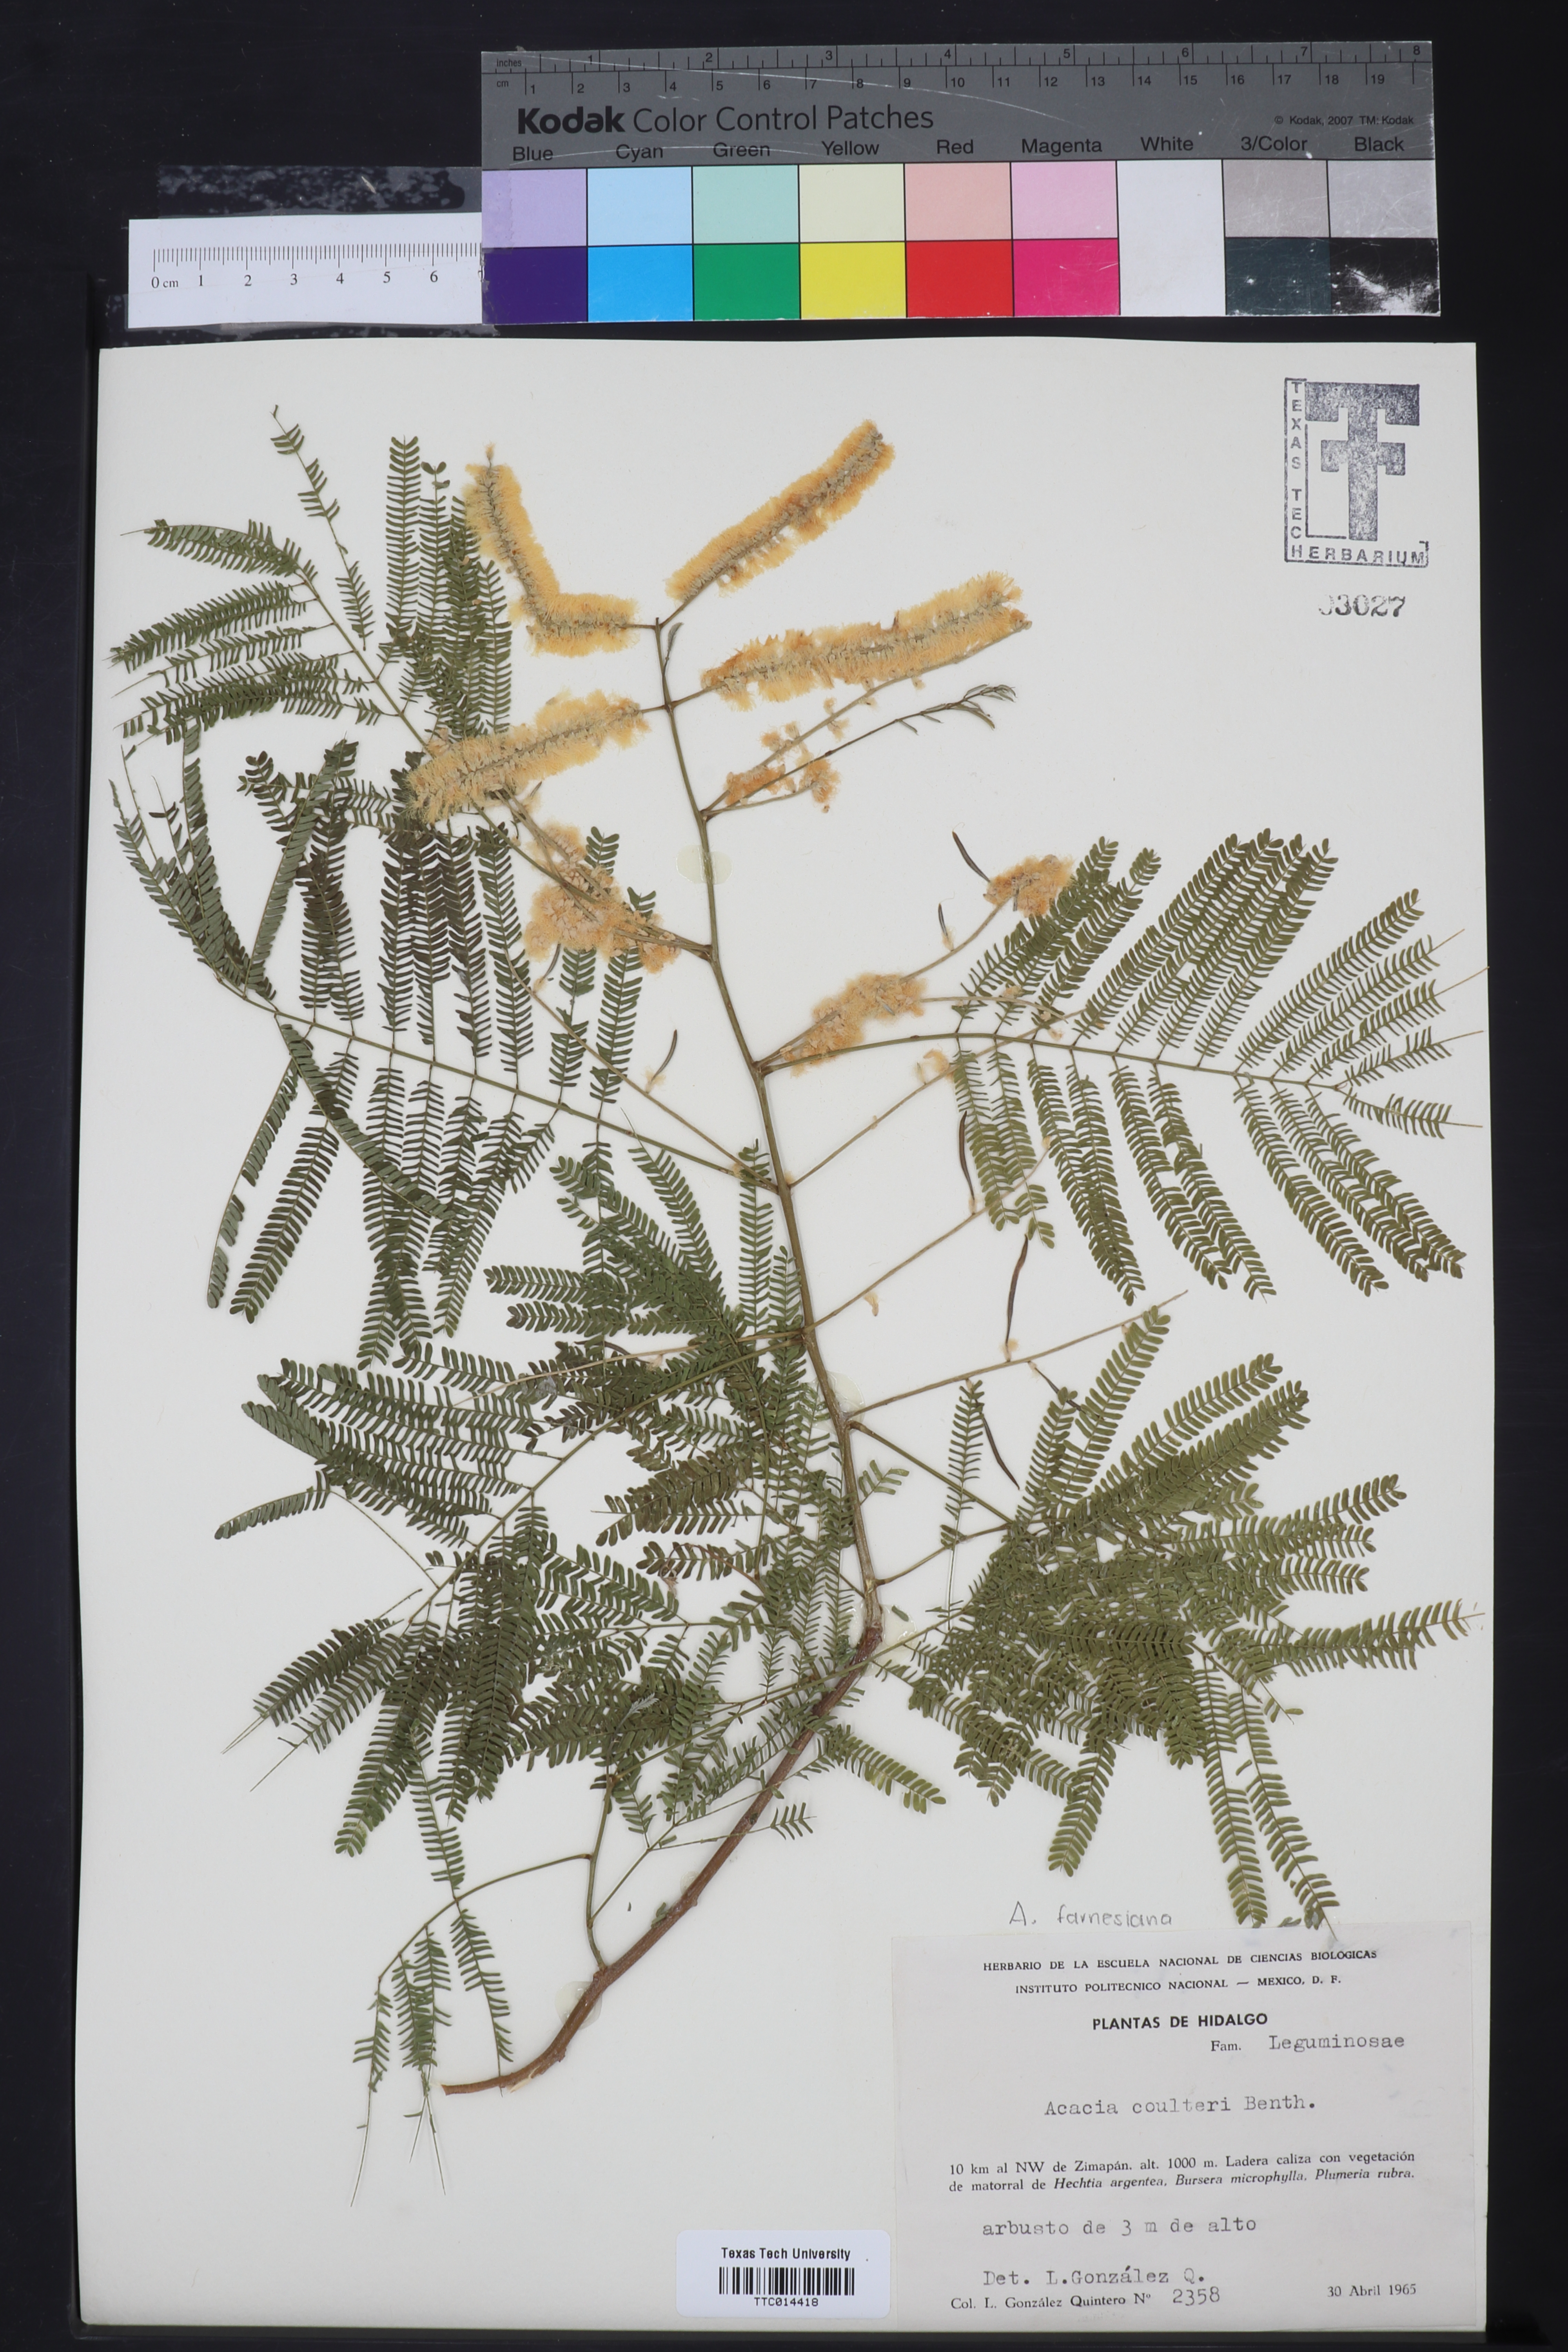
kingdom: Plantae
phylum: Tracheophyta
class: Magnoliopsida
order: Fabales
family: Fabaceae
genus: Acacia
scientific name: Acacia coulteri
